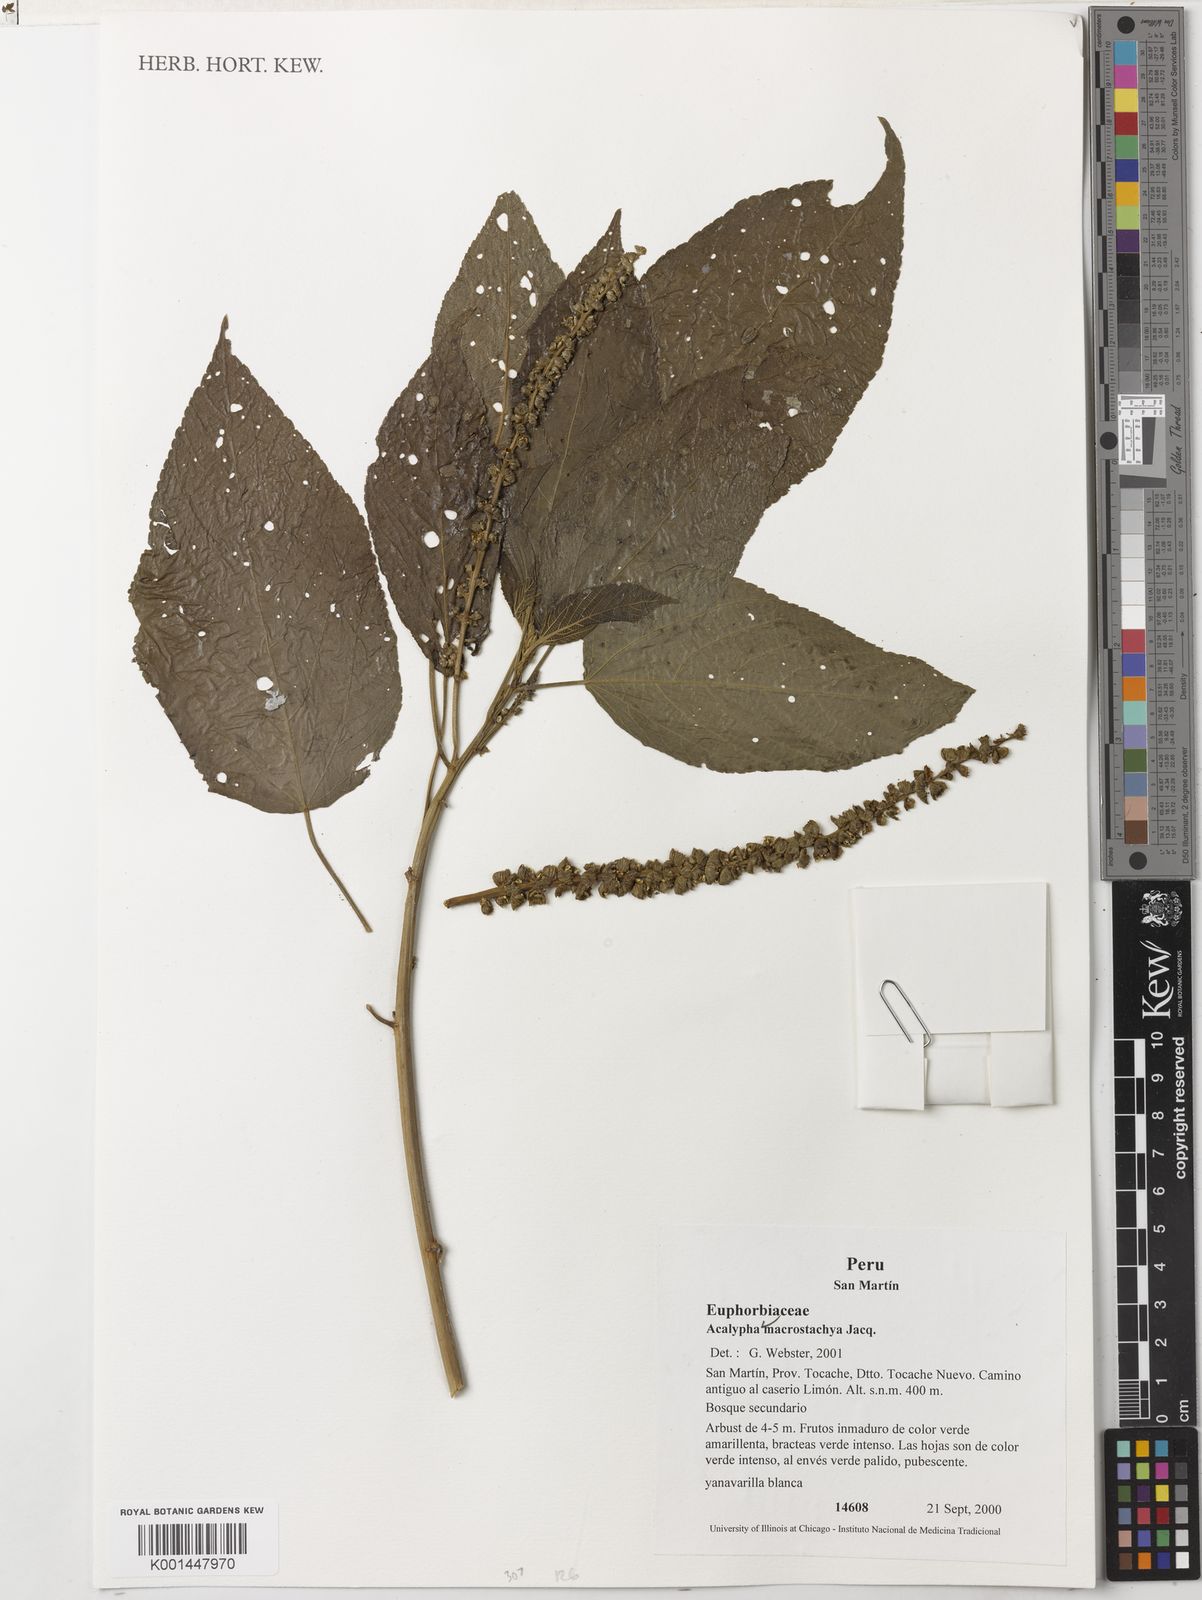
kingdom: Plantae
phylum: Tracheophyta
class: Magnoliopsida
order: Malpighiales
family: Euphorbiaceae
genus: Acalypha
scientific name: Acalypha macrostachya
